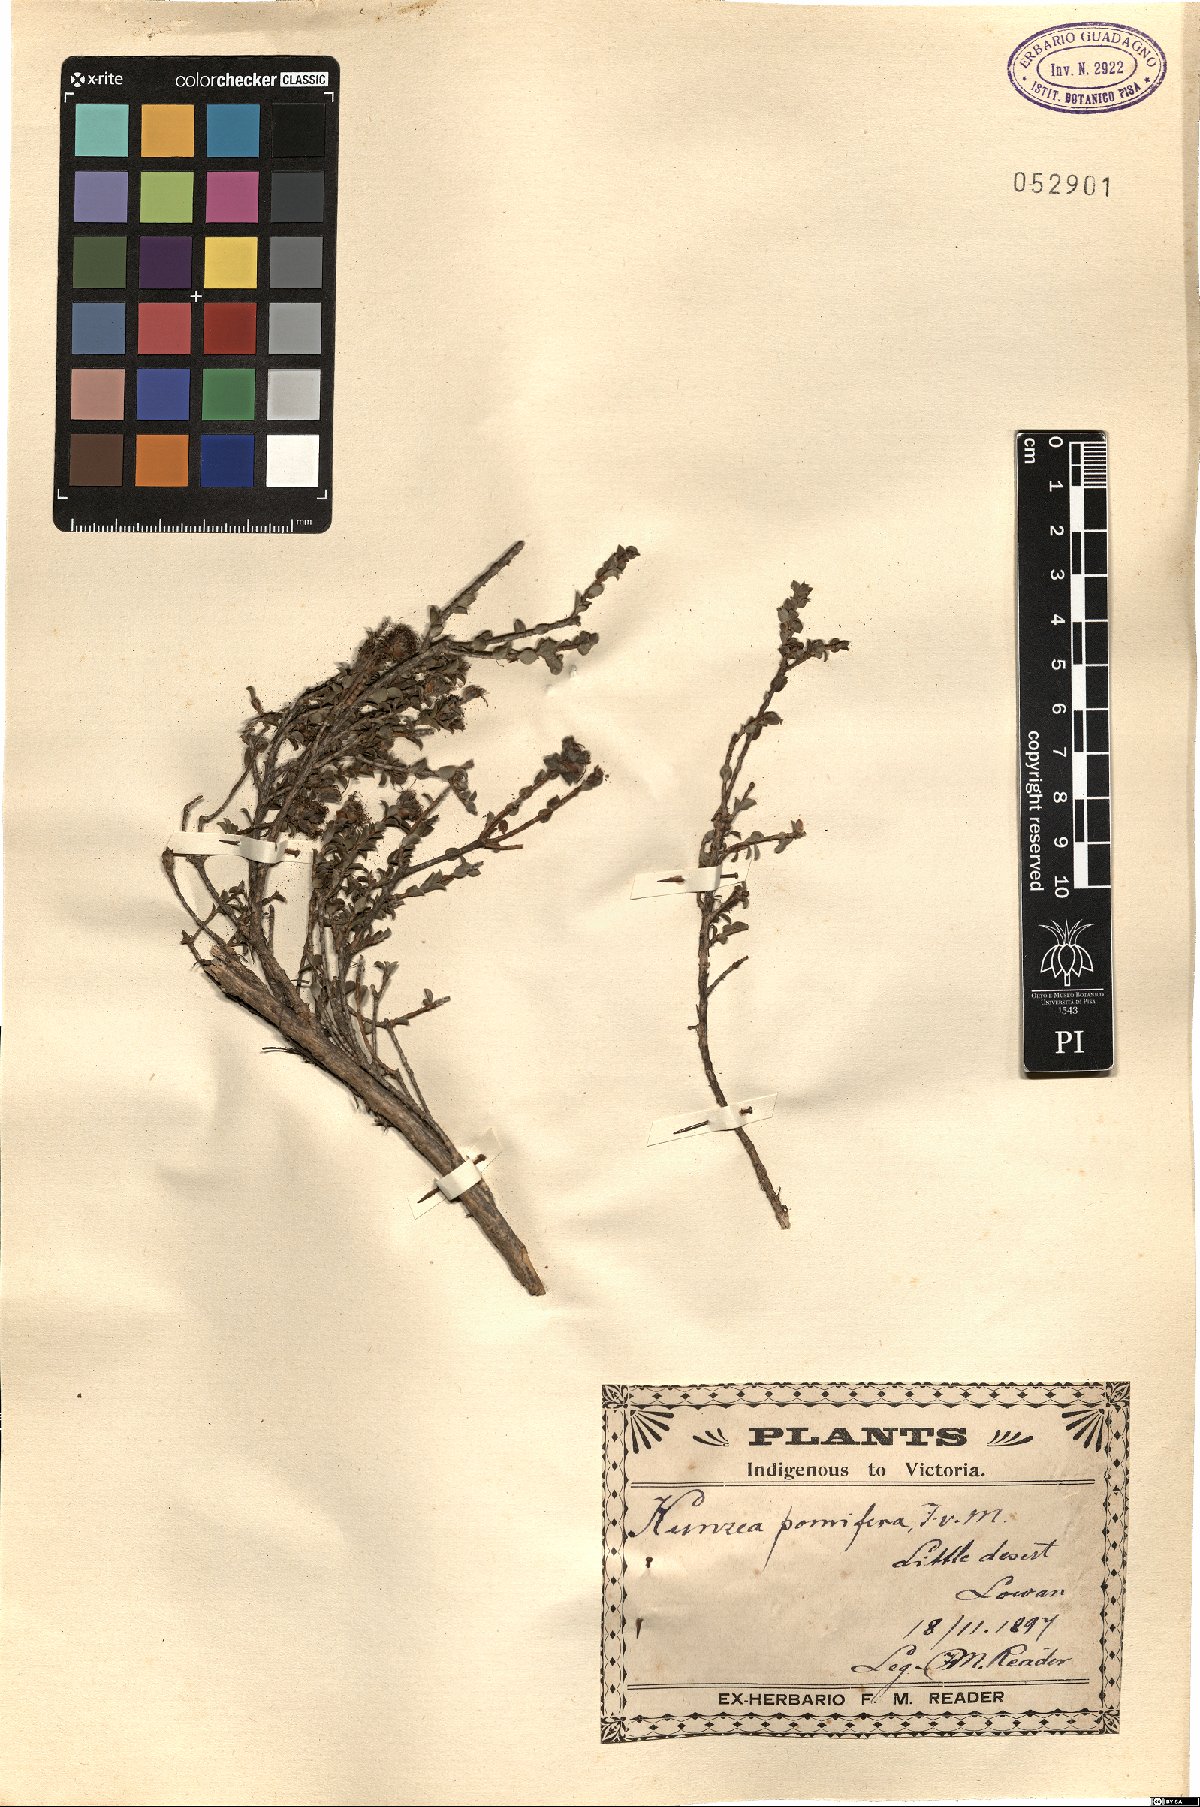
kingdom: Plantae
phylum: Tracheophyta
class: Magnoliopsida
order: Myrtales
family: Myrtaceae
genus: Kunzea
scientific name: Kunzea pomifera
